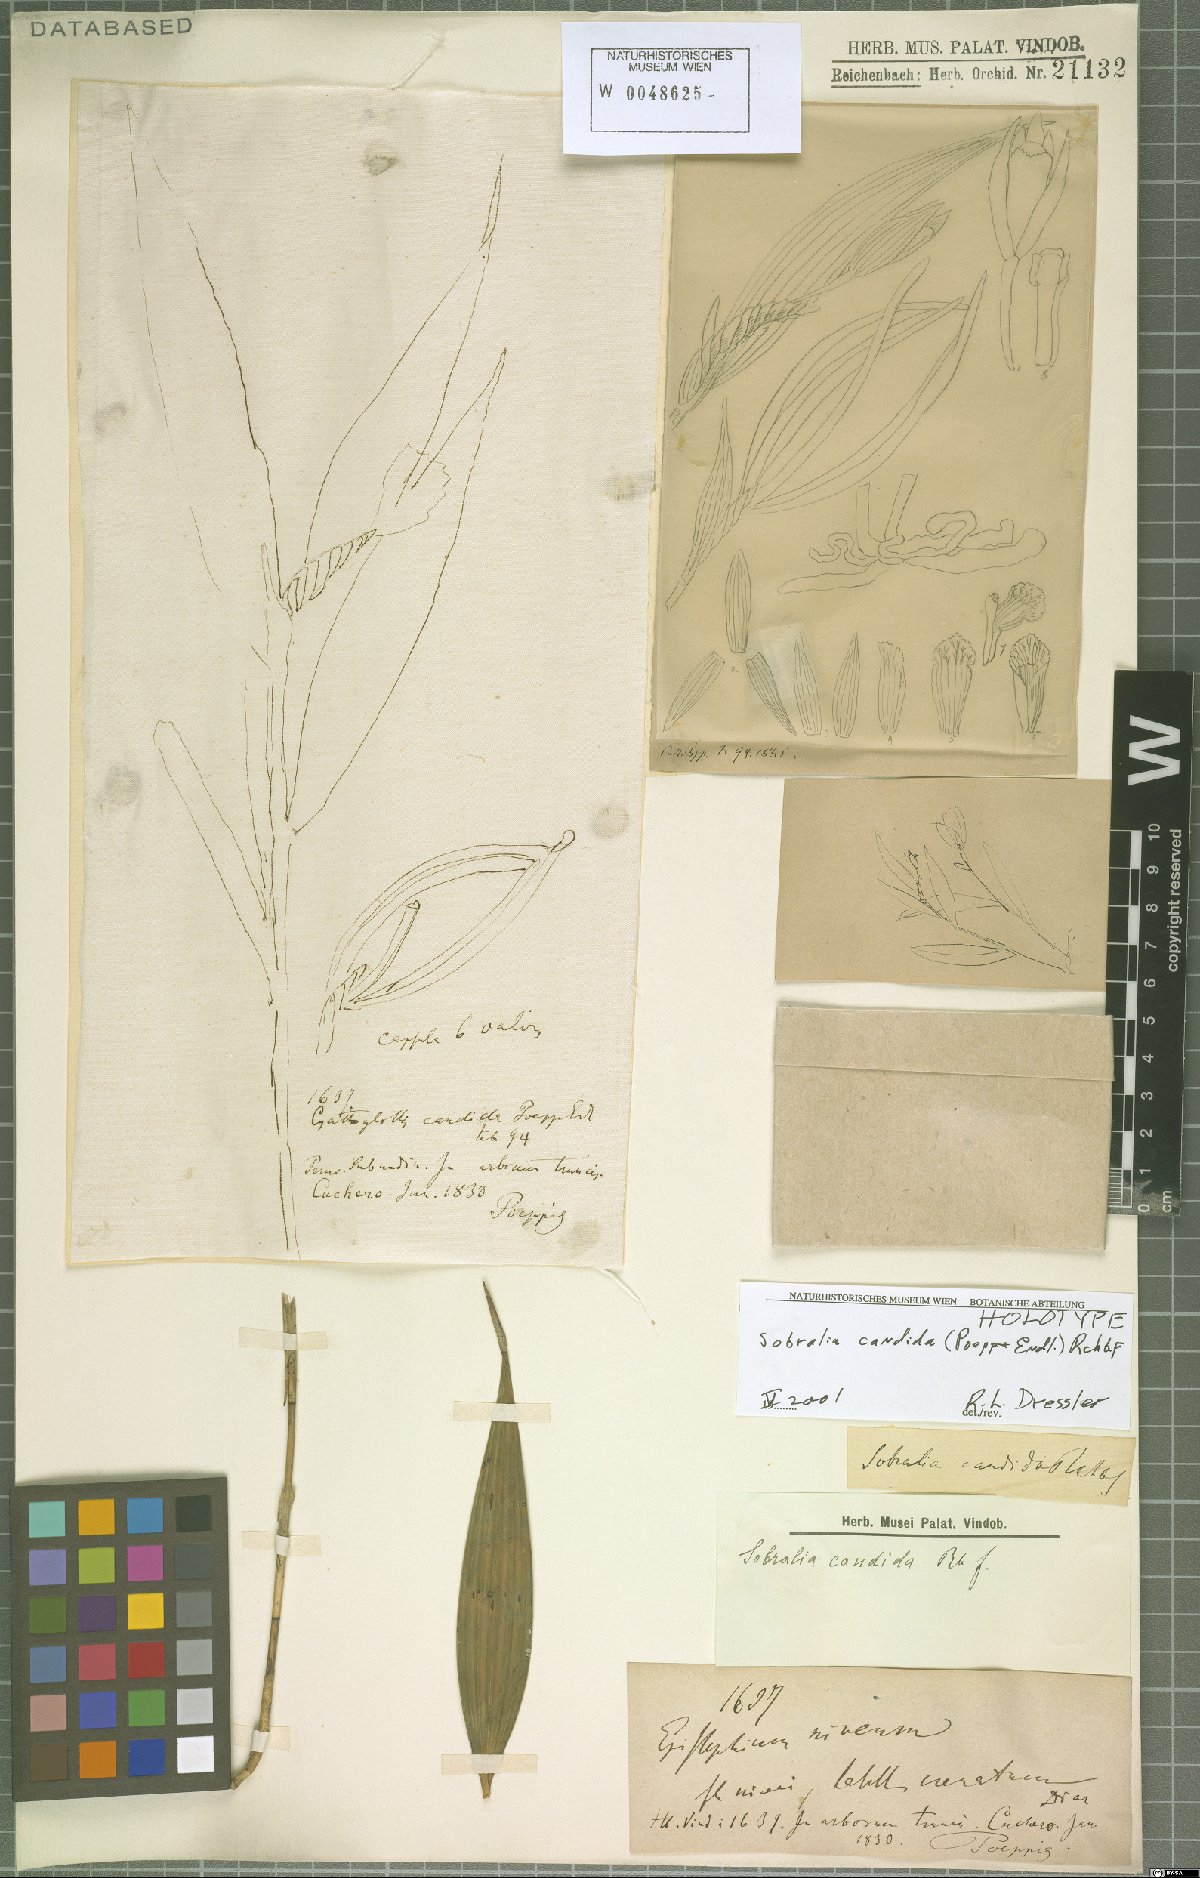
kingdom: Plantae
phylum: Tracheophyta
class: Liliopsida
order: Asparagales
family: Orchidaceae
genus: Sobralia
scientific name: Sobralia candida
